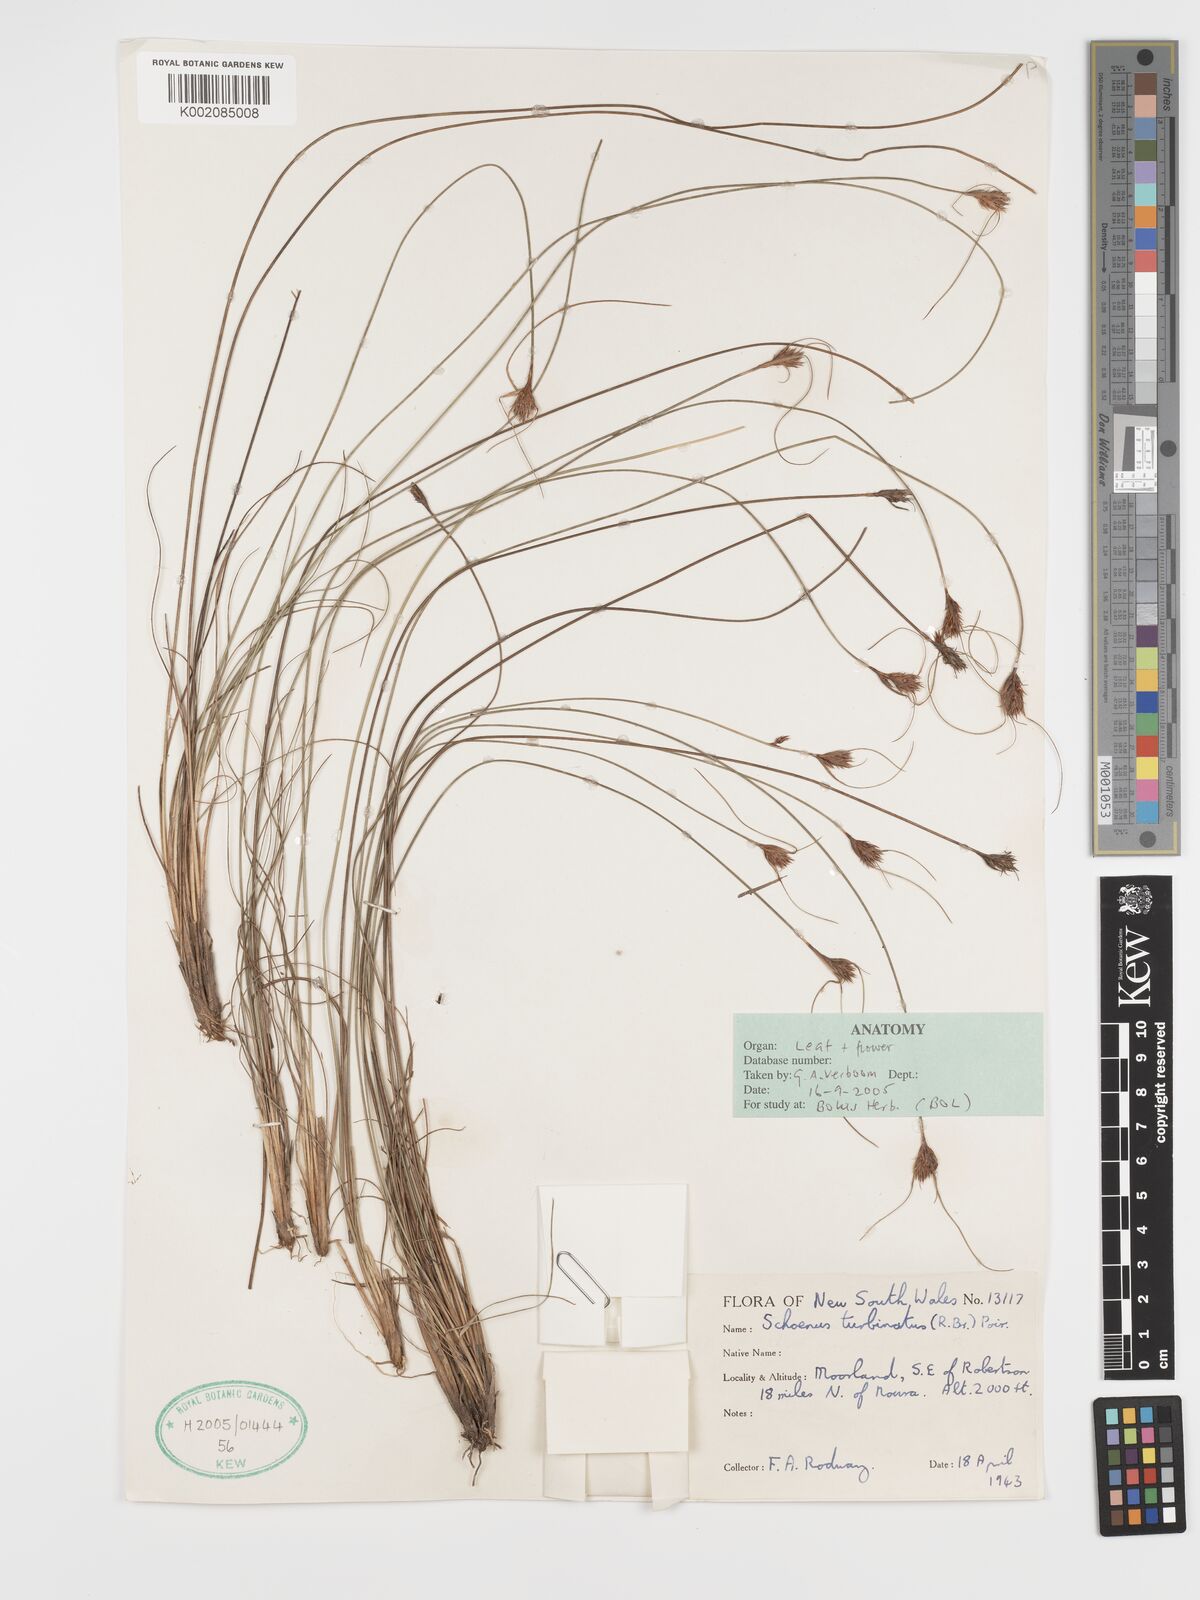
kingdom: Plantae
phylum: Tracheophyta
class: Liliopsida
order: Poales
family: Cyperaceae
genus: Schoenus
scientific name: Schoenus turbinatus
